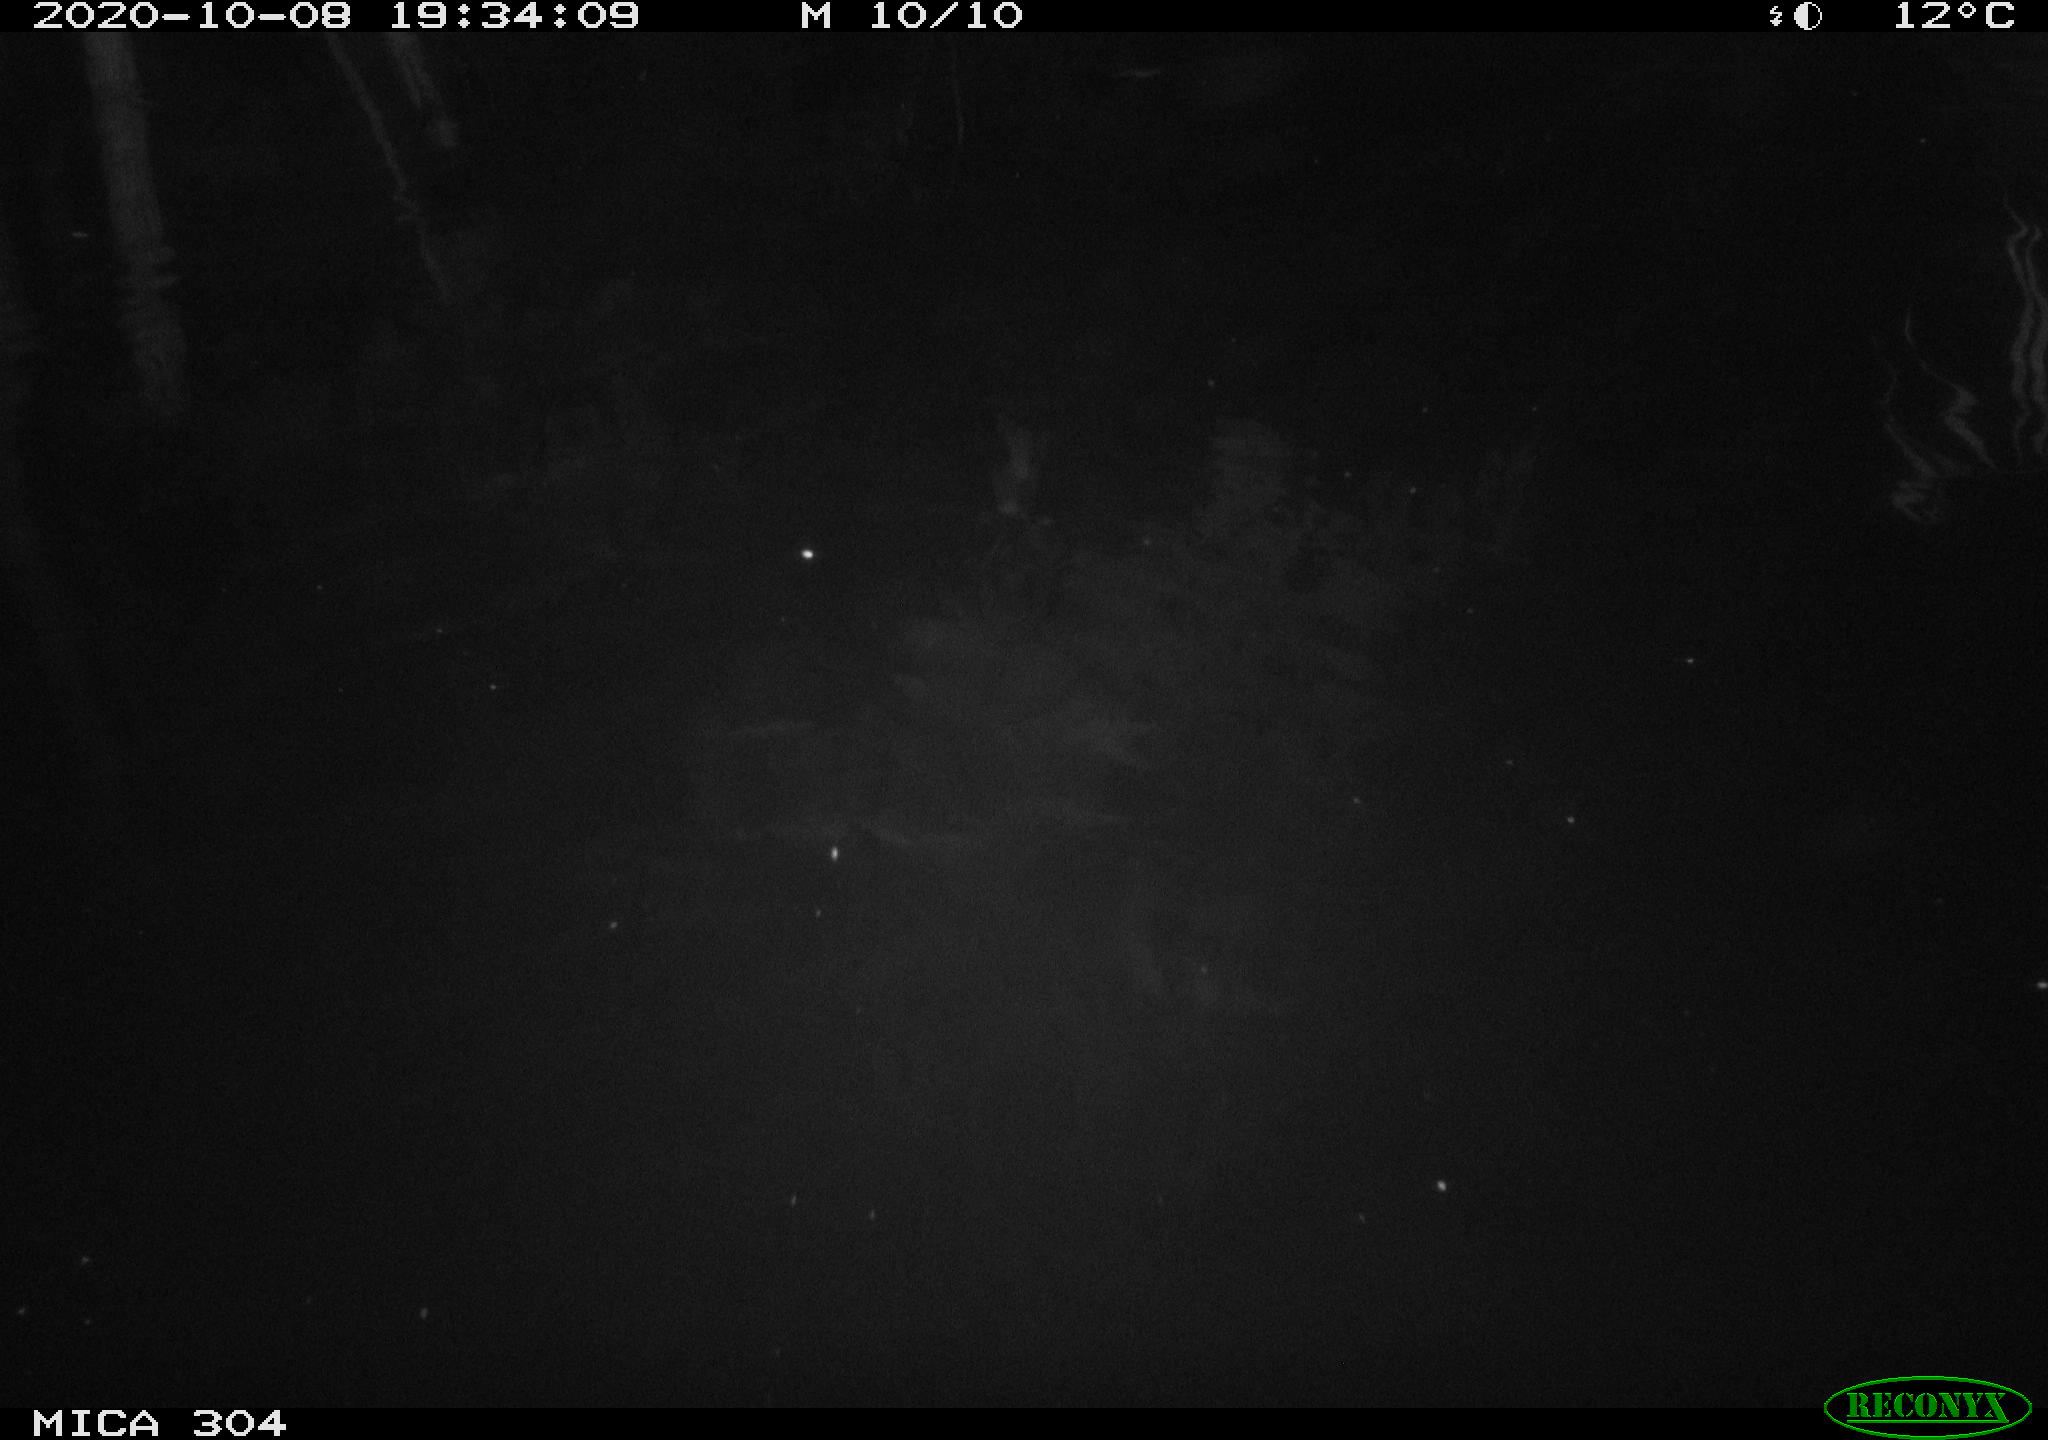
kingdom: Animalia
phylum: Chordata
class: Mammalia
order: Rodentia
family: Muridae
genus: Rattus
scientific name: Rattus norvegicus
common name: Brown rat
